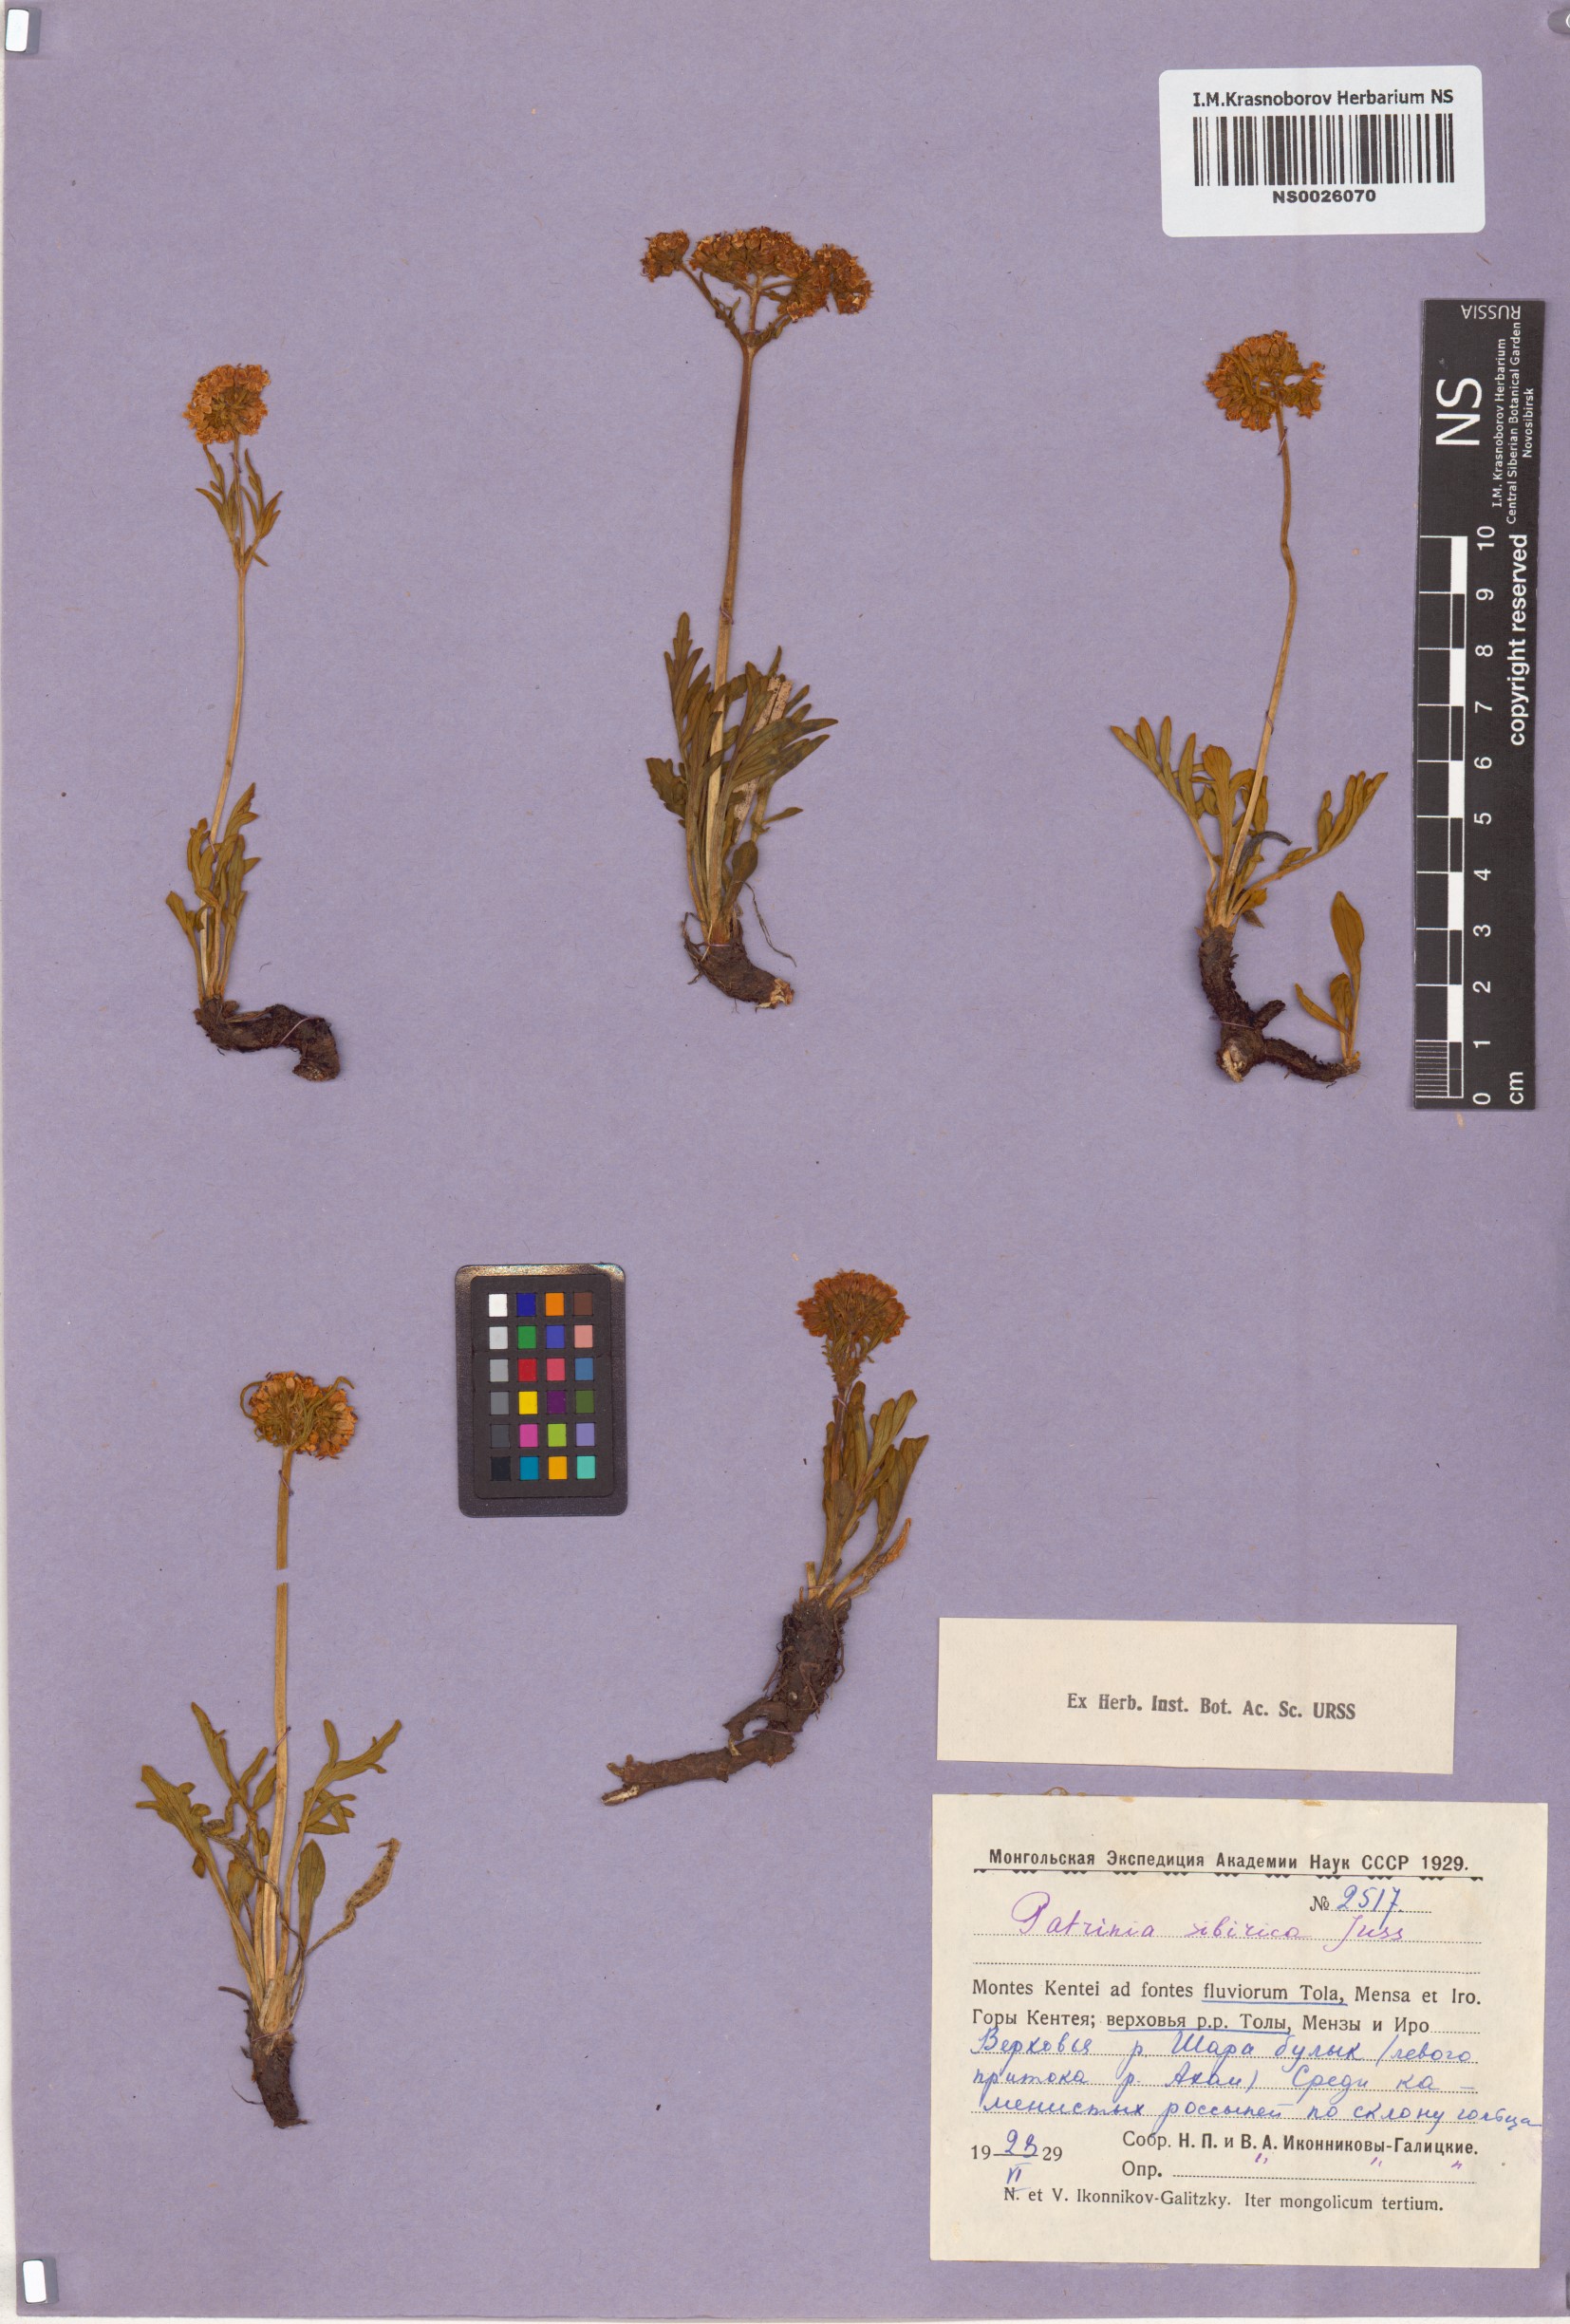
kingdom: Plantae
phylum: Tracheophyta
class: Magnoliopsida
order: Dipsacales
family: Caprifoliaceae
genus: Patrinia
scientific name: Patrinia sibirica
